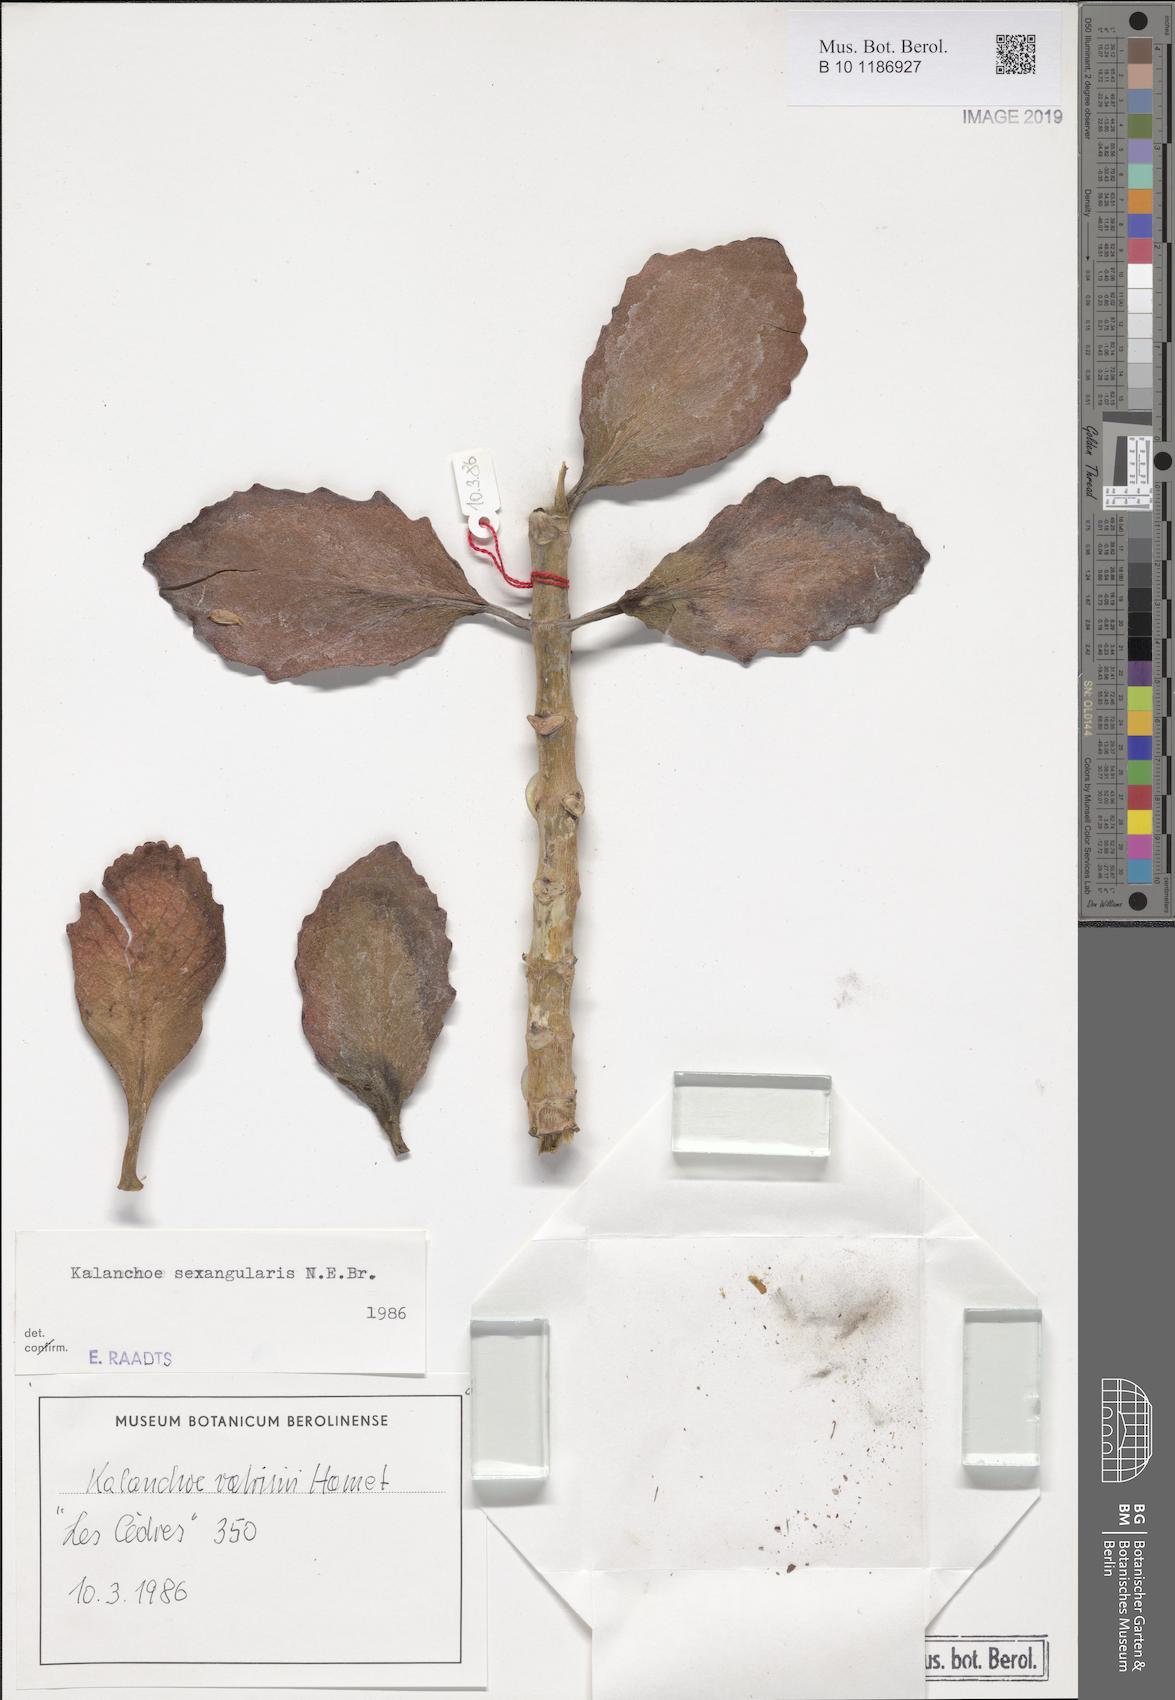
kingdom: Plantae
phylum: Tracheophyta
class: Magnoliopsida
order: Saxifragales
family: Crassulaceae
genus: Kalanchoe
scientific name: Kalanchoe sexangularis
